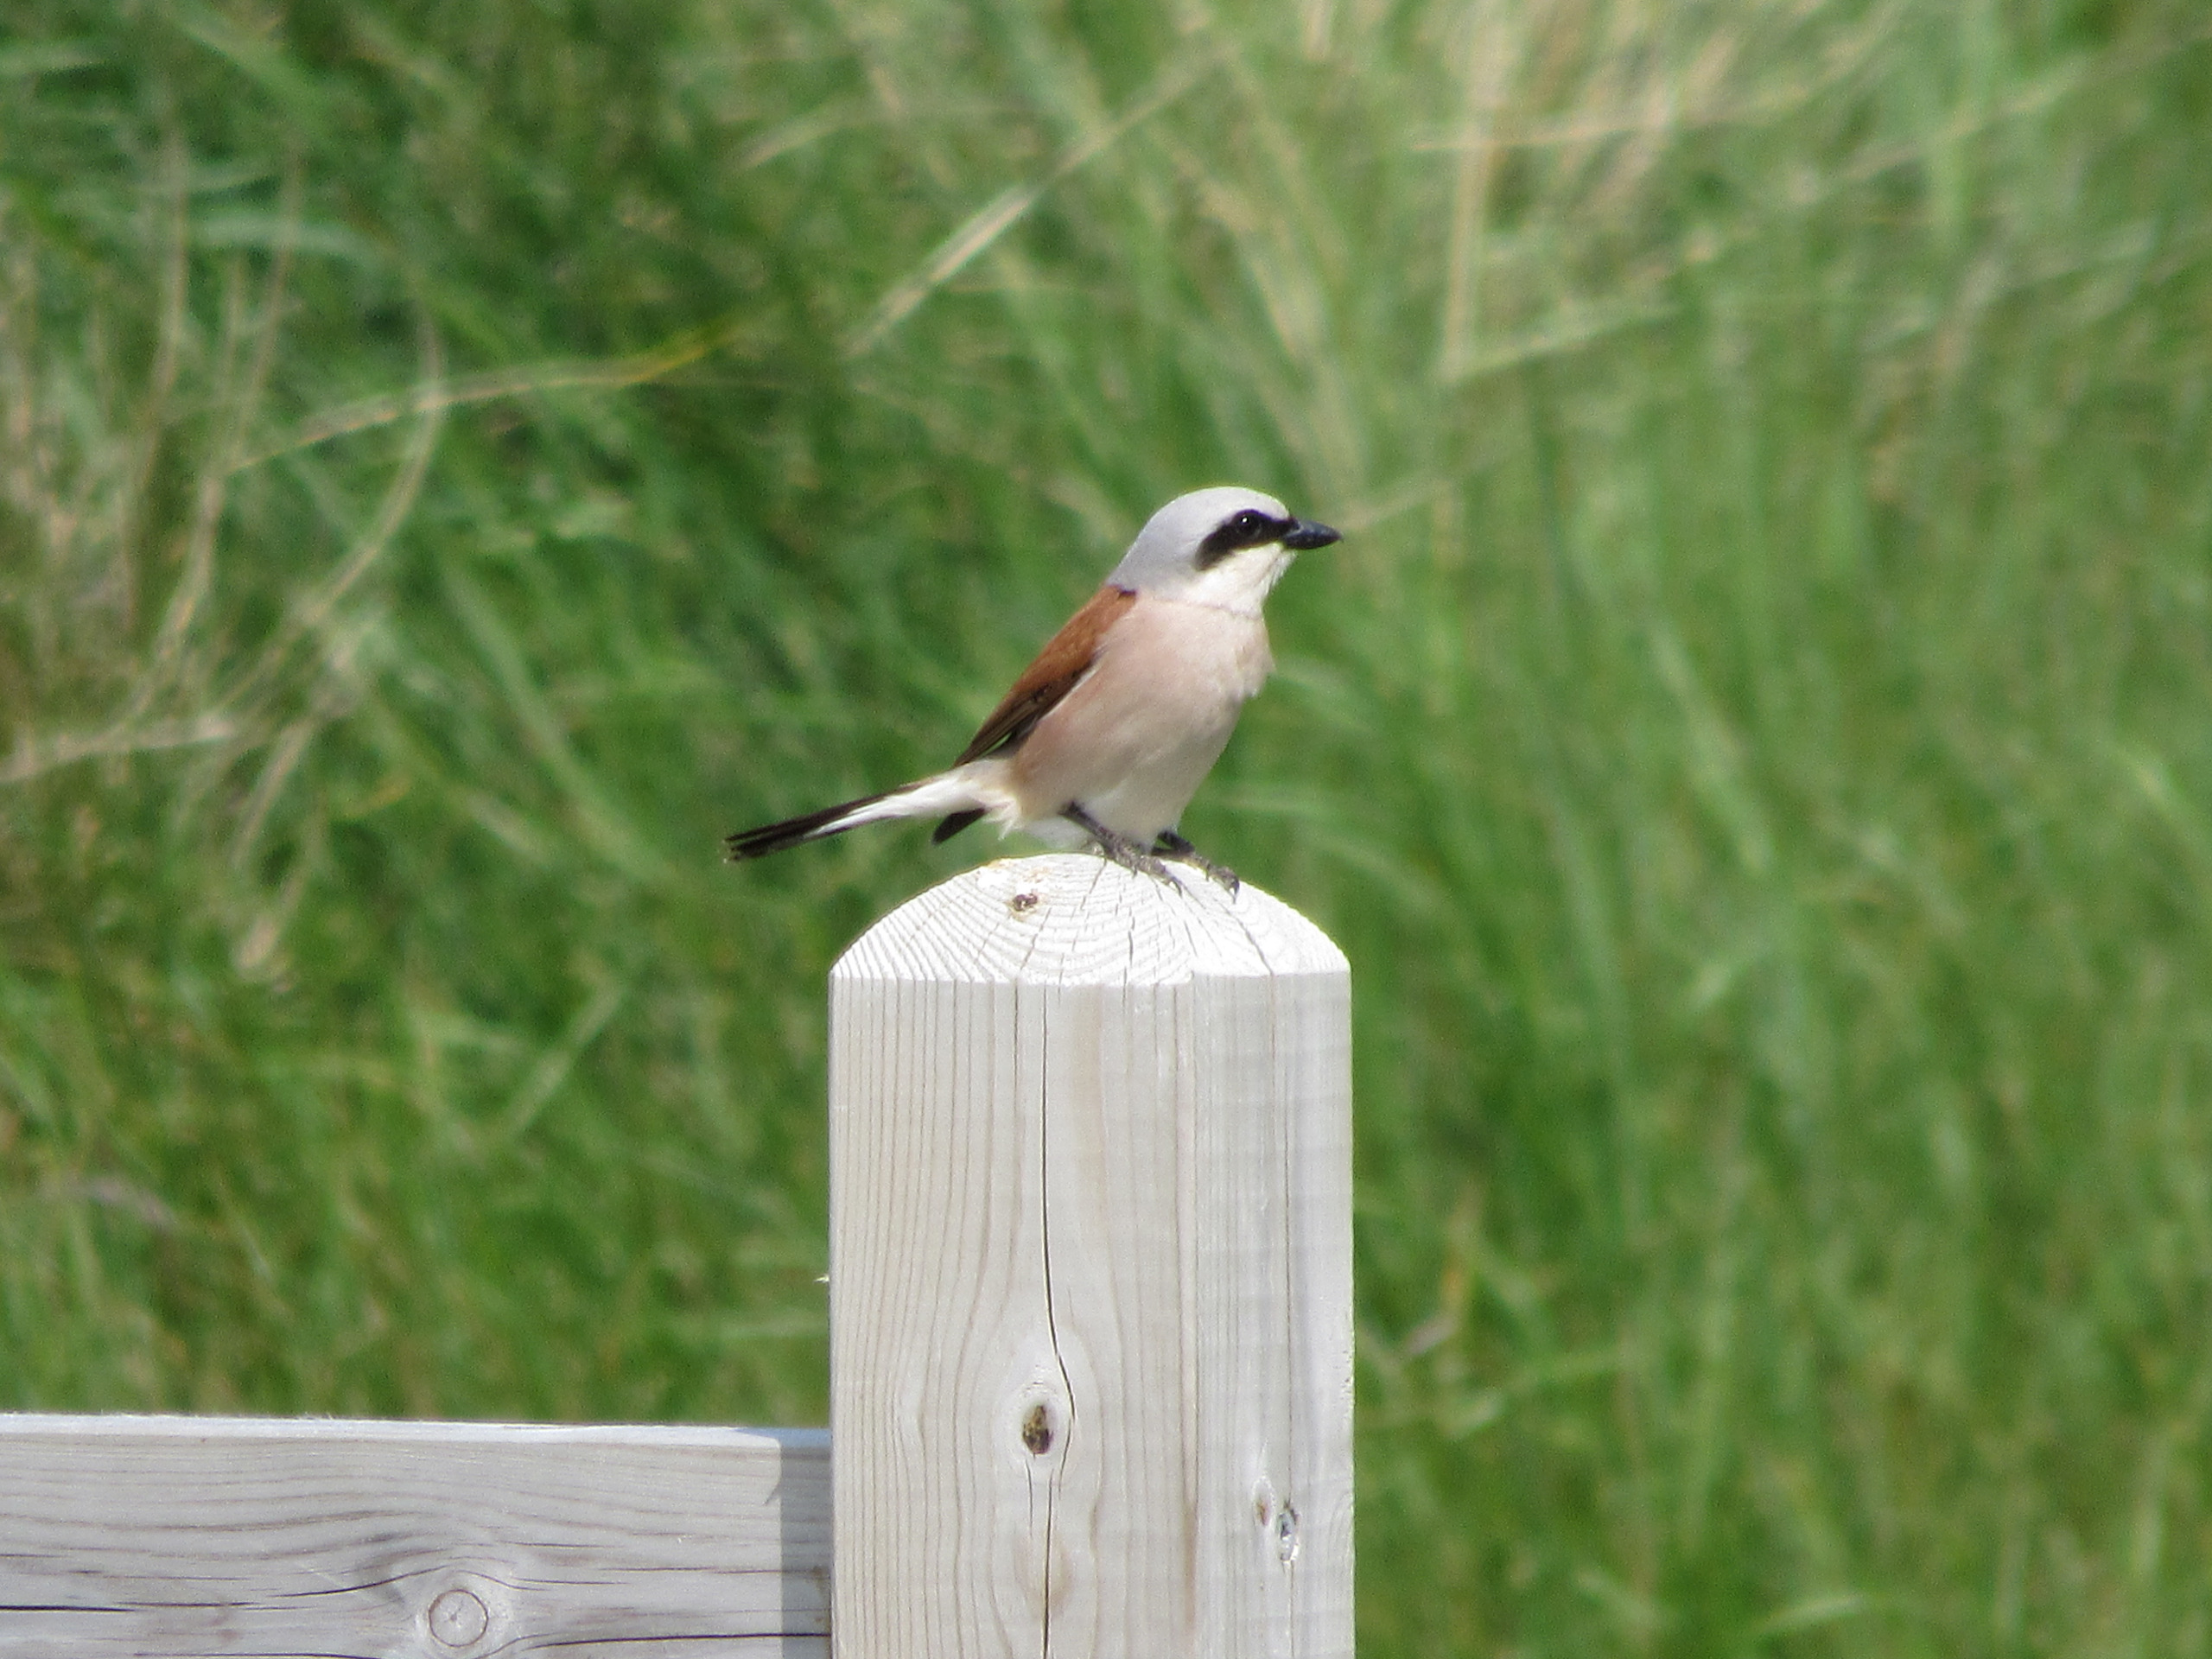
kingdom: Animalia
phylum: Chordata
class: Aves
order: Passeriformes
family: Laniidae
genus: Lanius
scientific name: Lanius collurio
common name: Rødrygget tornskade
